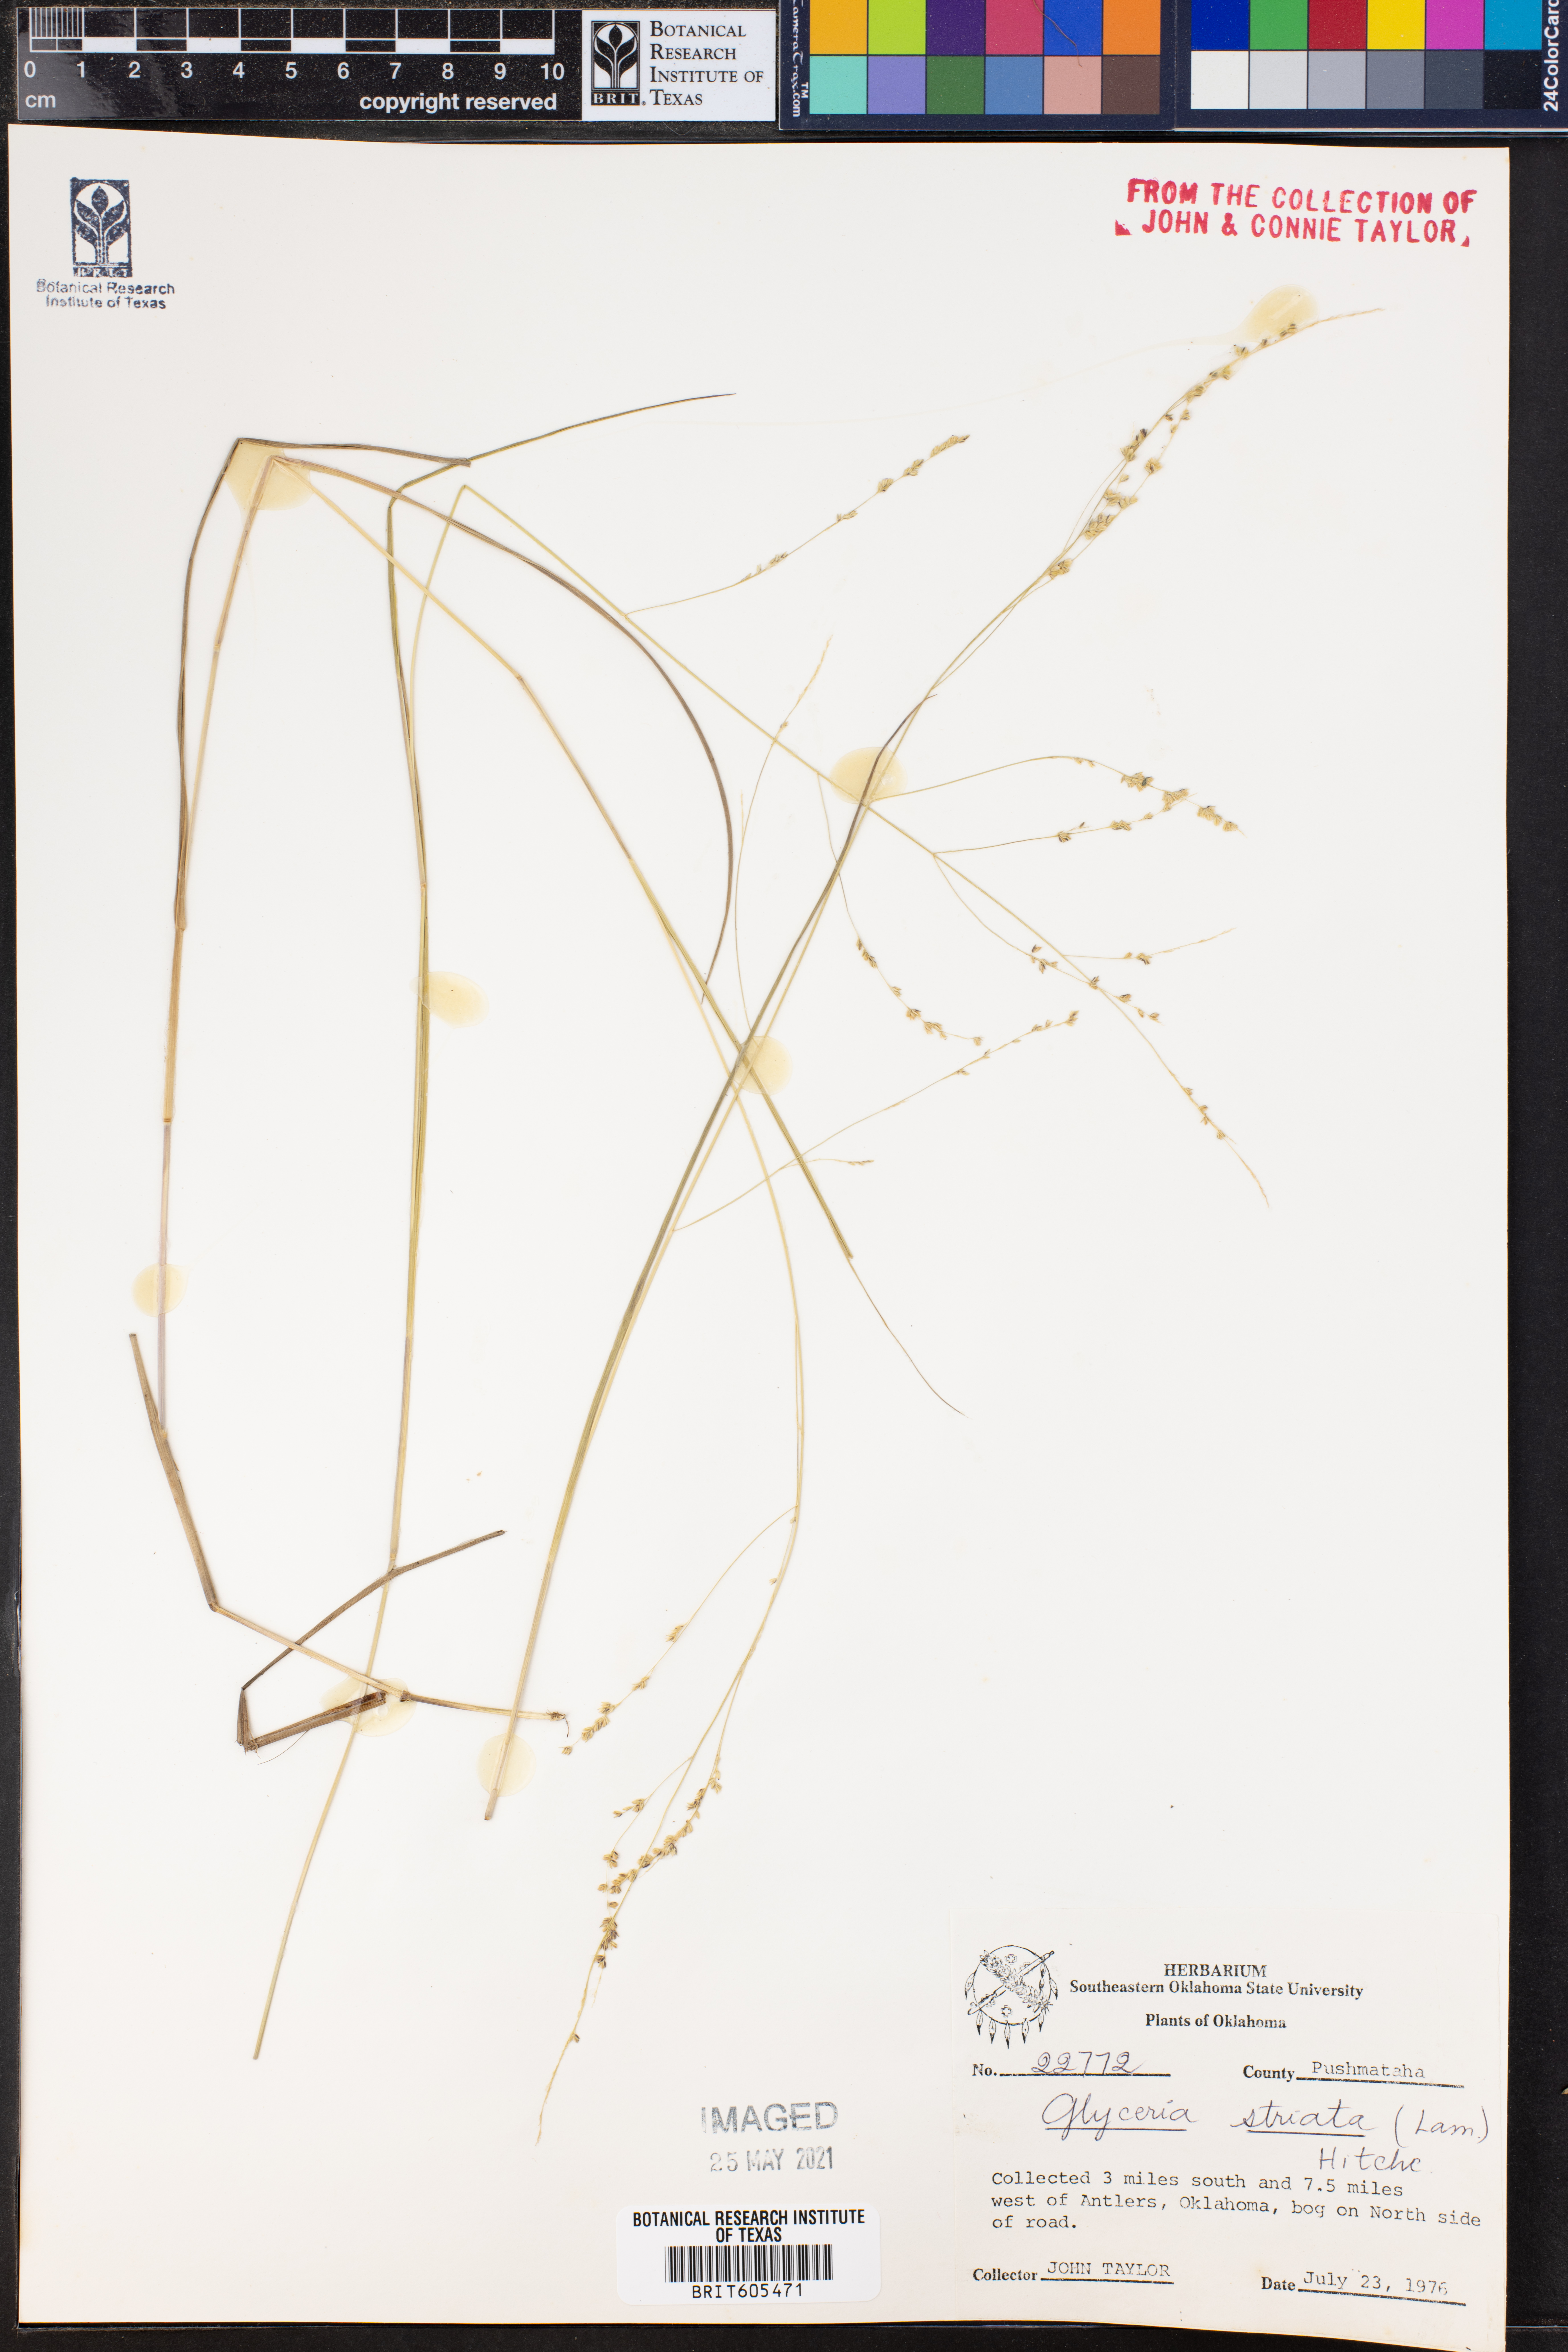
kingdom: Plantae
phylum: Tracheophyta
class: Liliopsida
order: Poales
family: Poaceae
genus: Glyceria
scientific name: Glyceria striata
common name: Fowl manna grass
